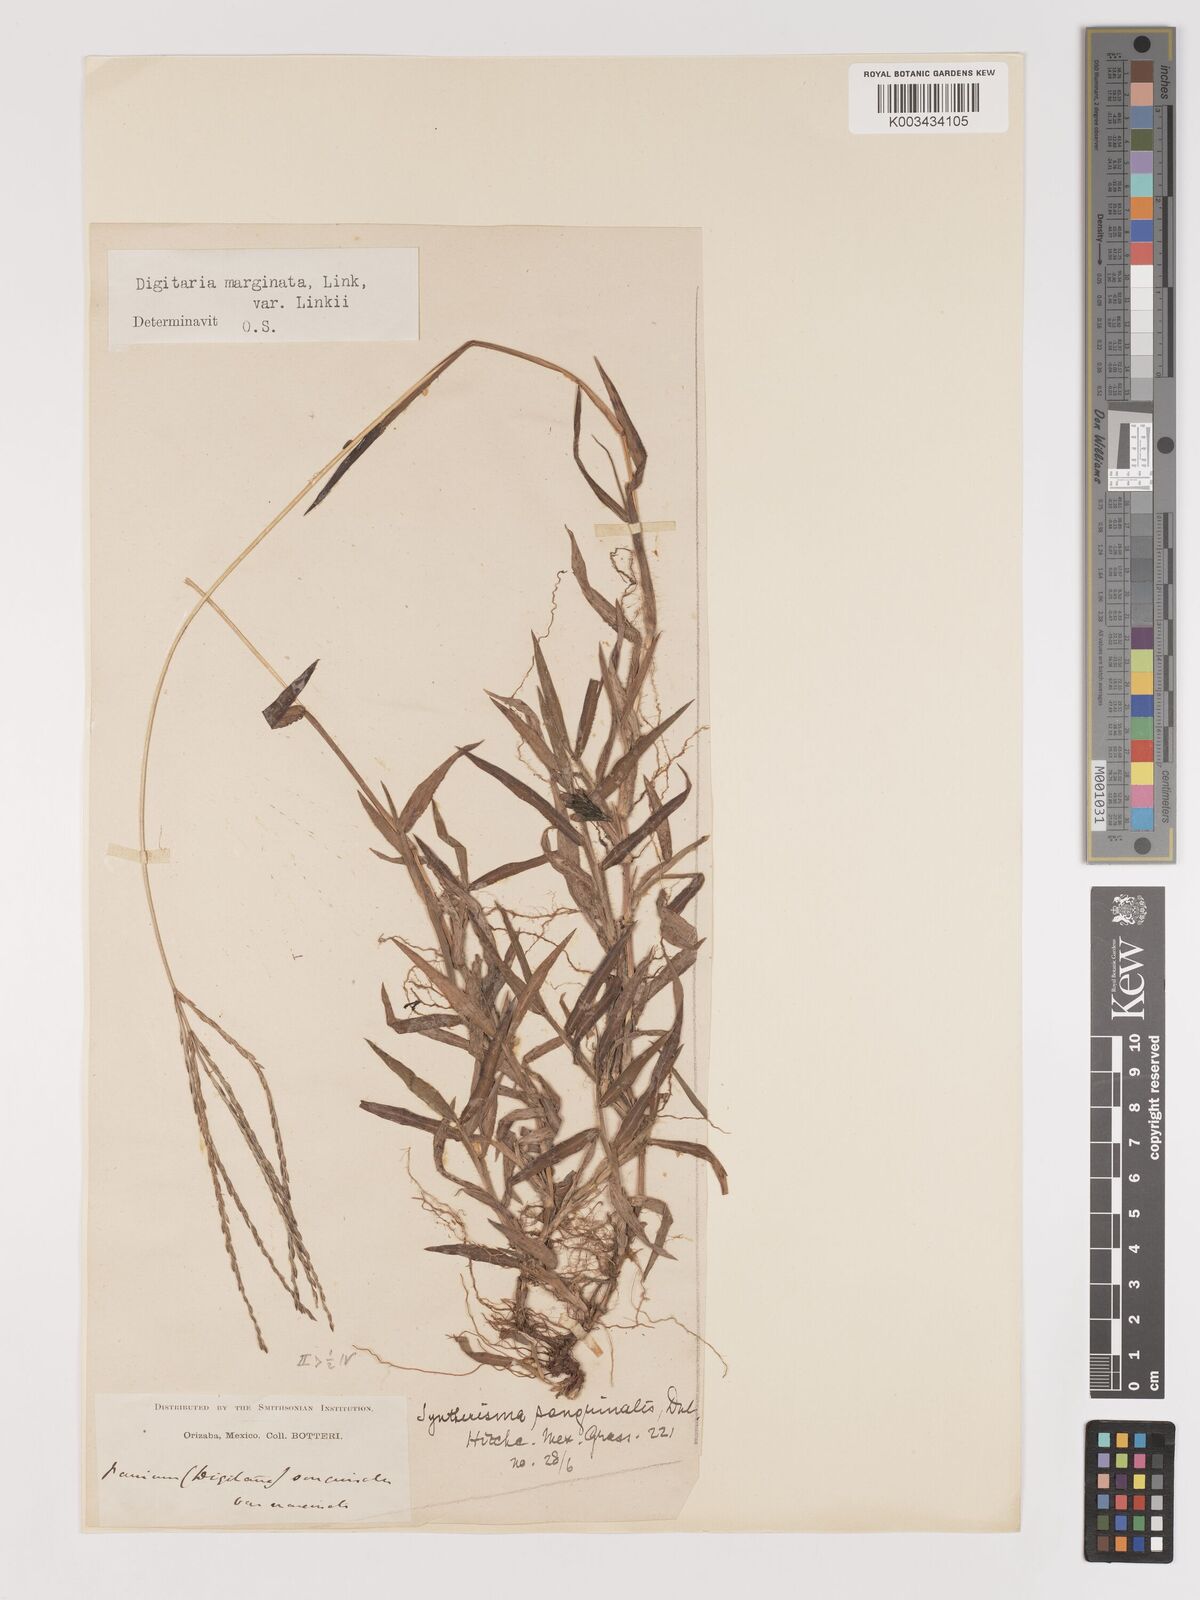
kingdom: Plantae
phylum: Tracheophyta
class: Liliopsida
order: Poales
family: Poaceae
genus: Digitaria
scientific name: Digitaria ciliaris
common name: Tropical finger-grass
